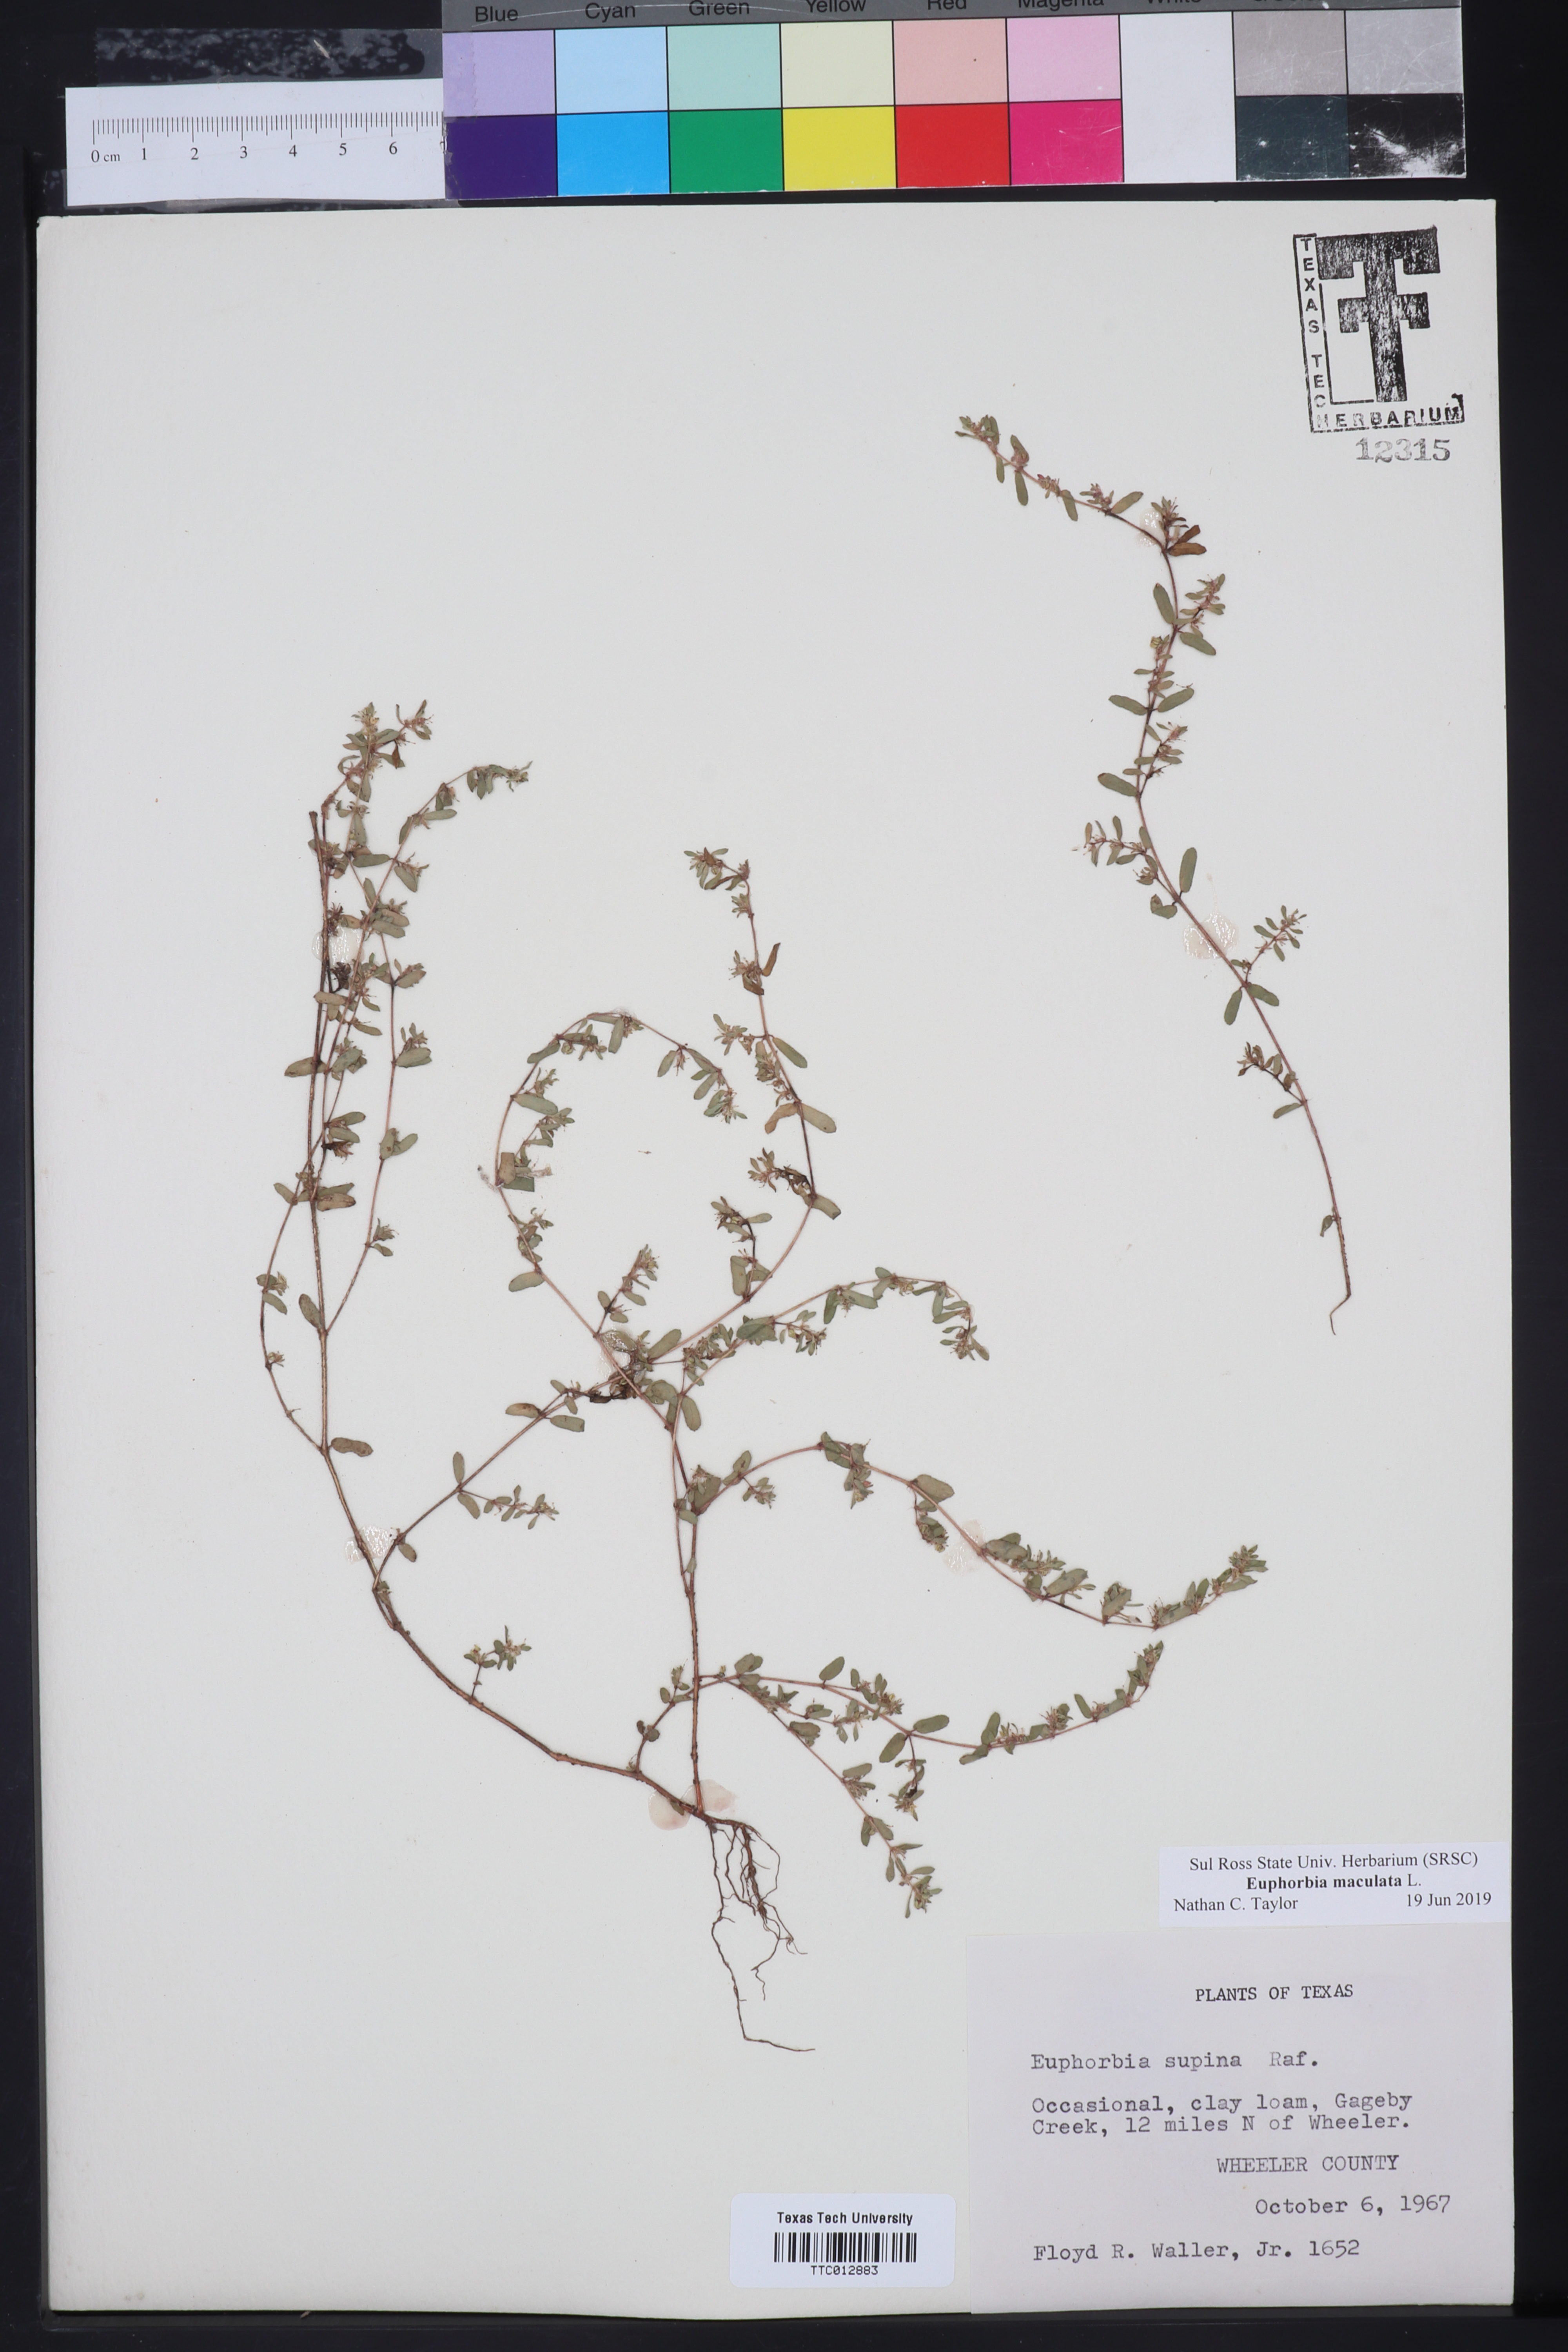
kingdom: Plantae
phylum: Tracheophyta
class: Magnoliopsida
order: Malpighiales
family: Euphorbiaceae
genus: Euphorbia
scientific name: Euphorbia maculata
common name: Spotted spurge
